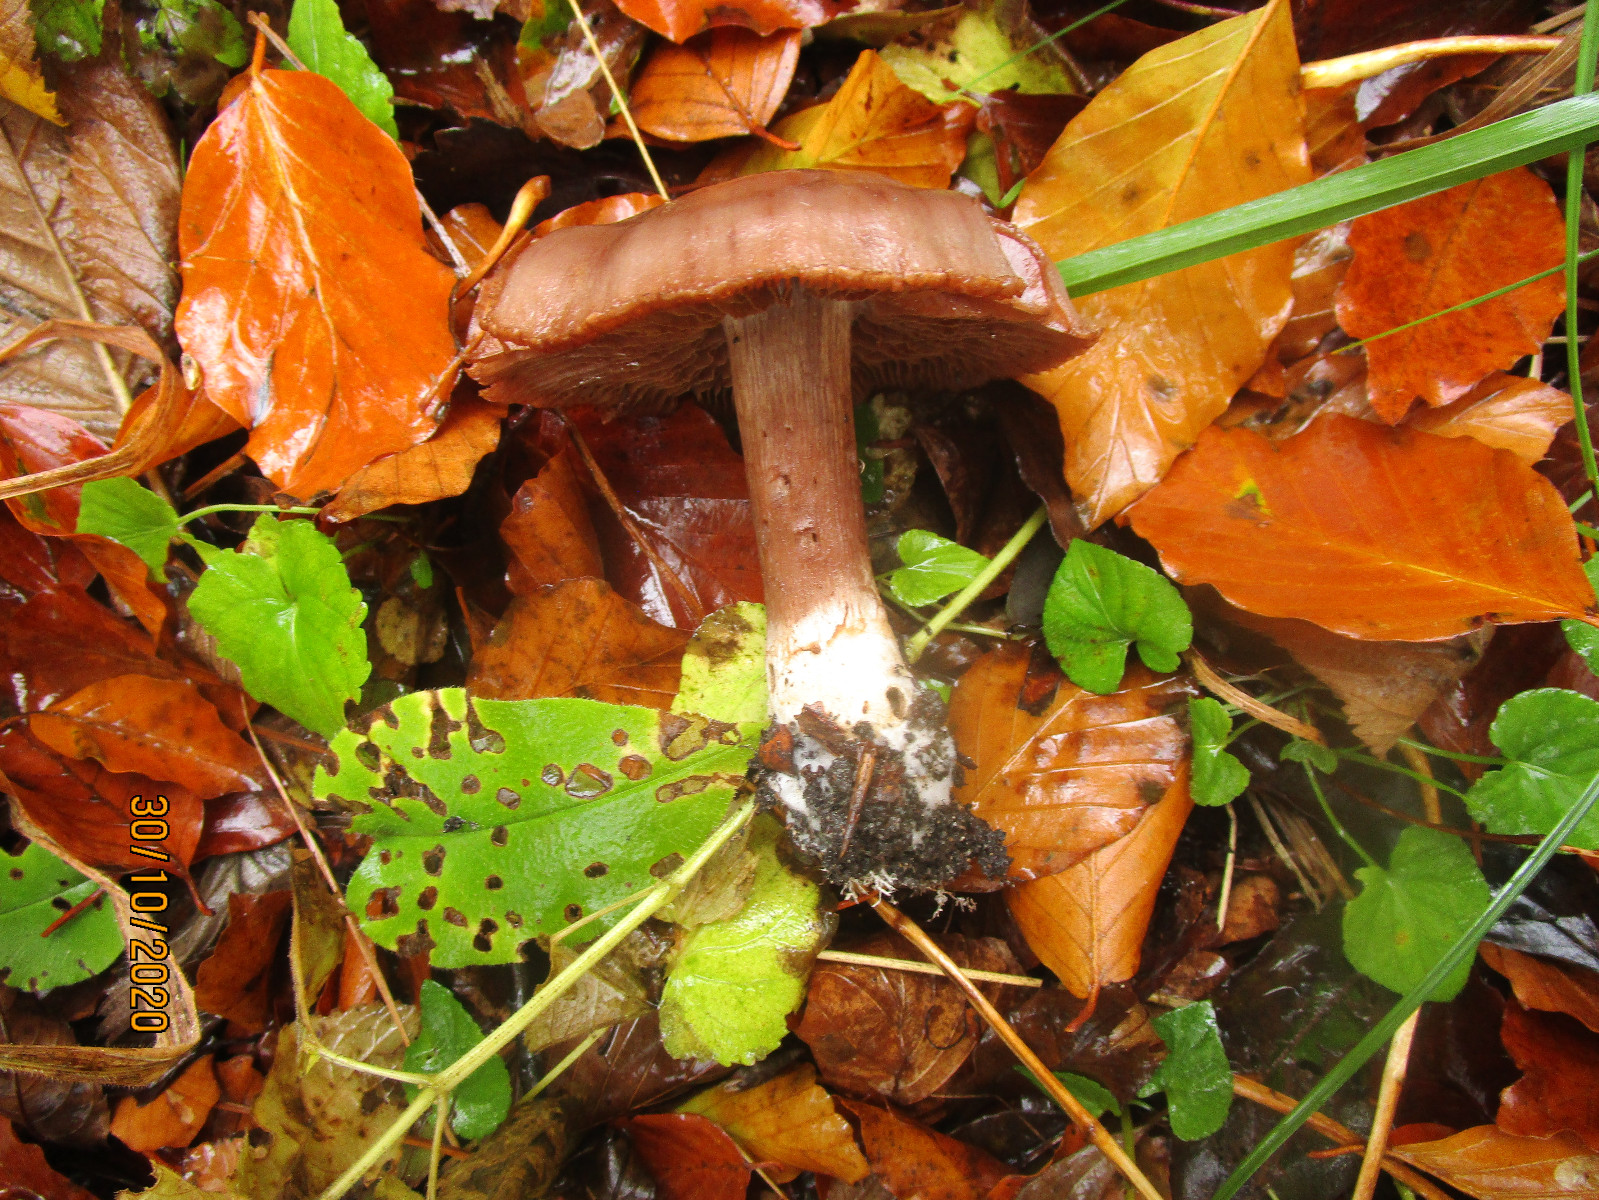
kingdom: Fungi
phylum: Basidiomycota
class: Agaricomycetes
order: Agaricales
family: Cortinariaceae
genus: Cortinarius
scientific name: Cortinarius
